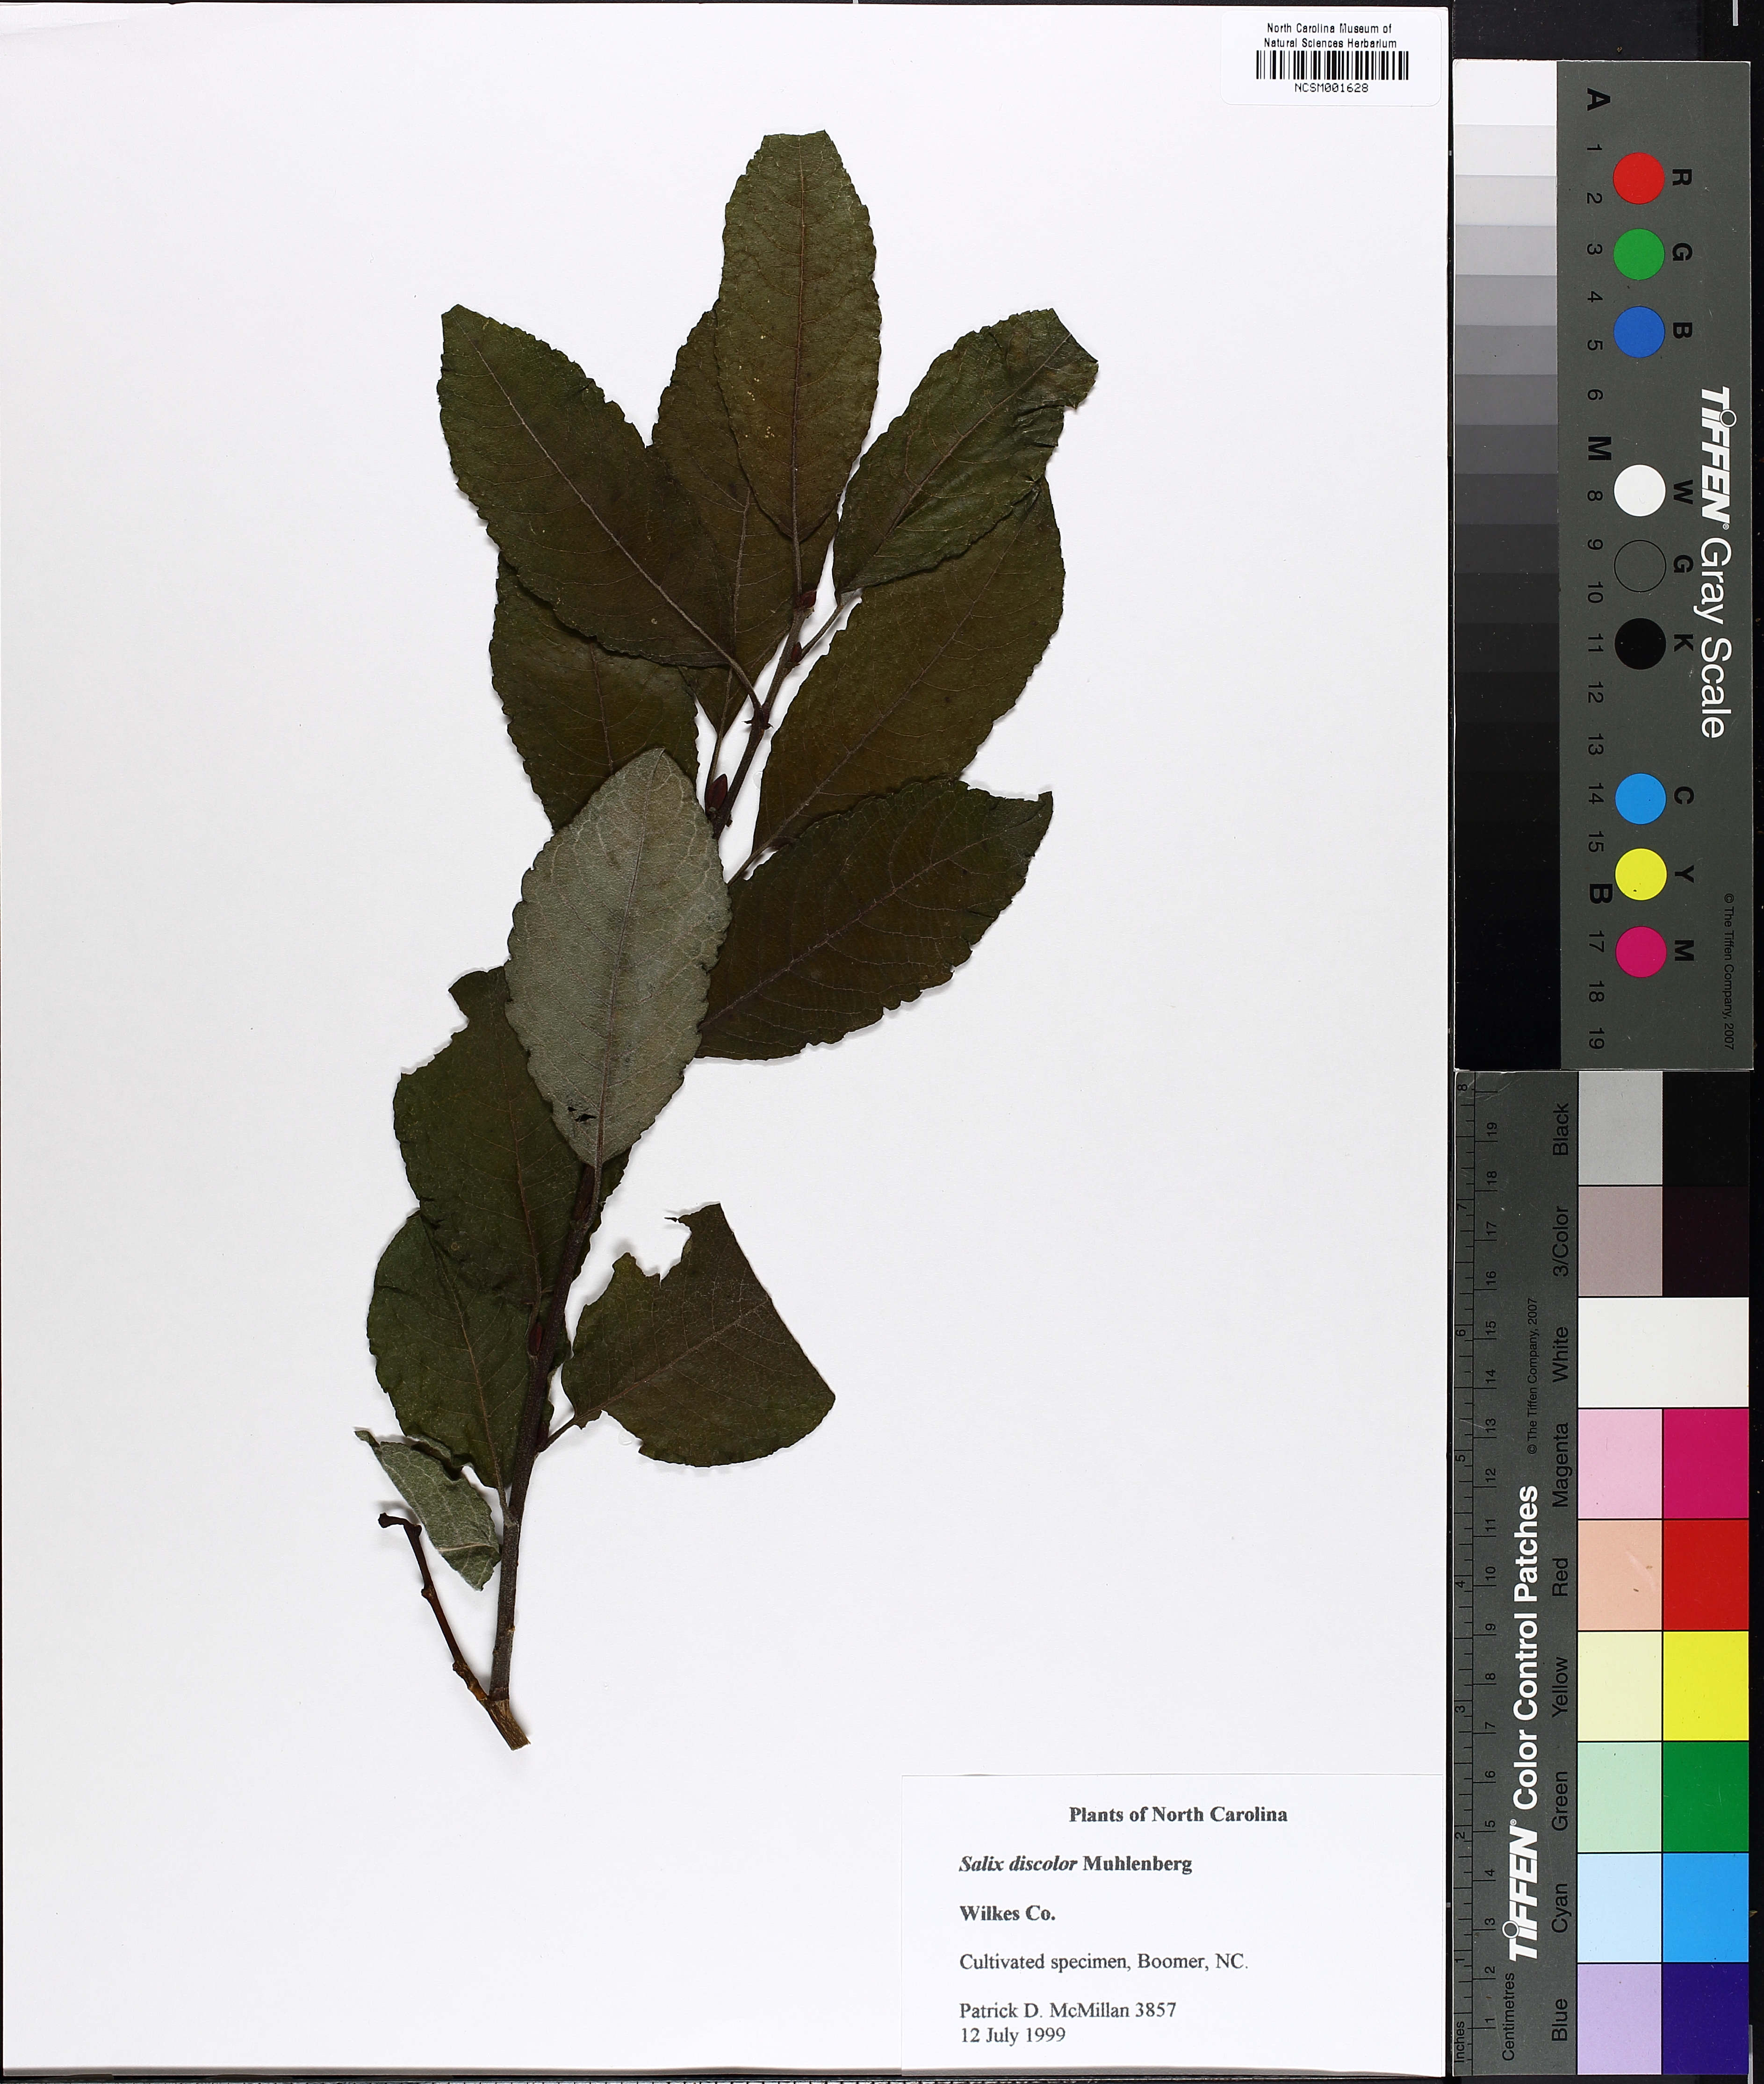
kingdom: Plantae
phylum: Tracheophyta
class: Magnoliopsida
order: Malpighiales
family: Salicaceae
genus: Salix
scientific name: Salix discolor
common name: Glaucous willow
